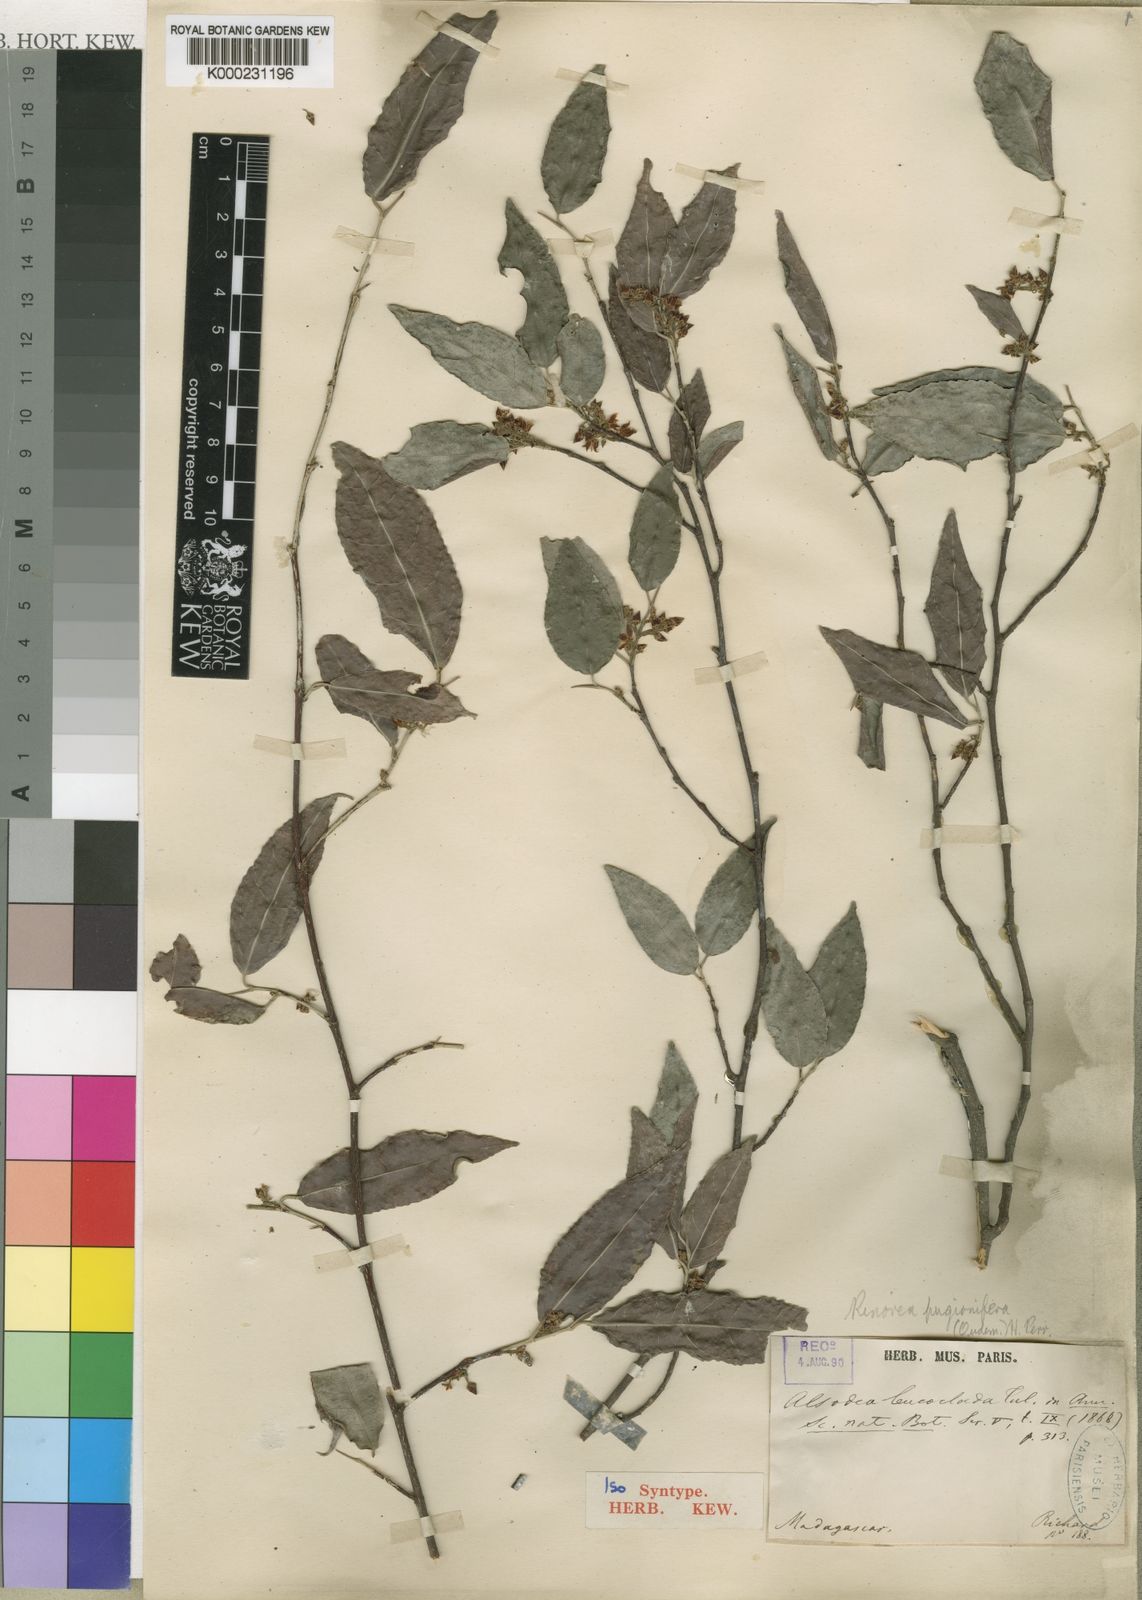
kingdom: Plantae
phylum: Tracheophyta
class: Magnoliopsida
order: Malpighiales
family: Violaceae
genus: Rinorea
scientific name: Rinorea pugionifera
